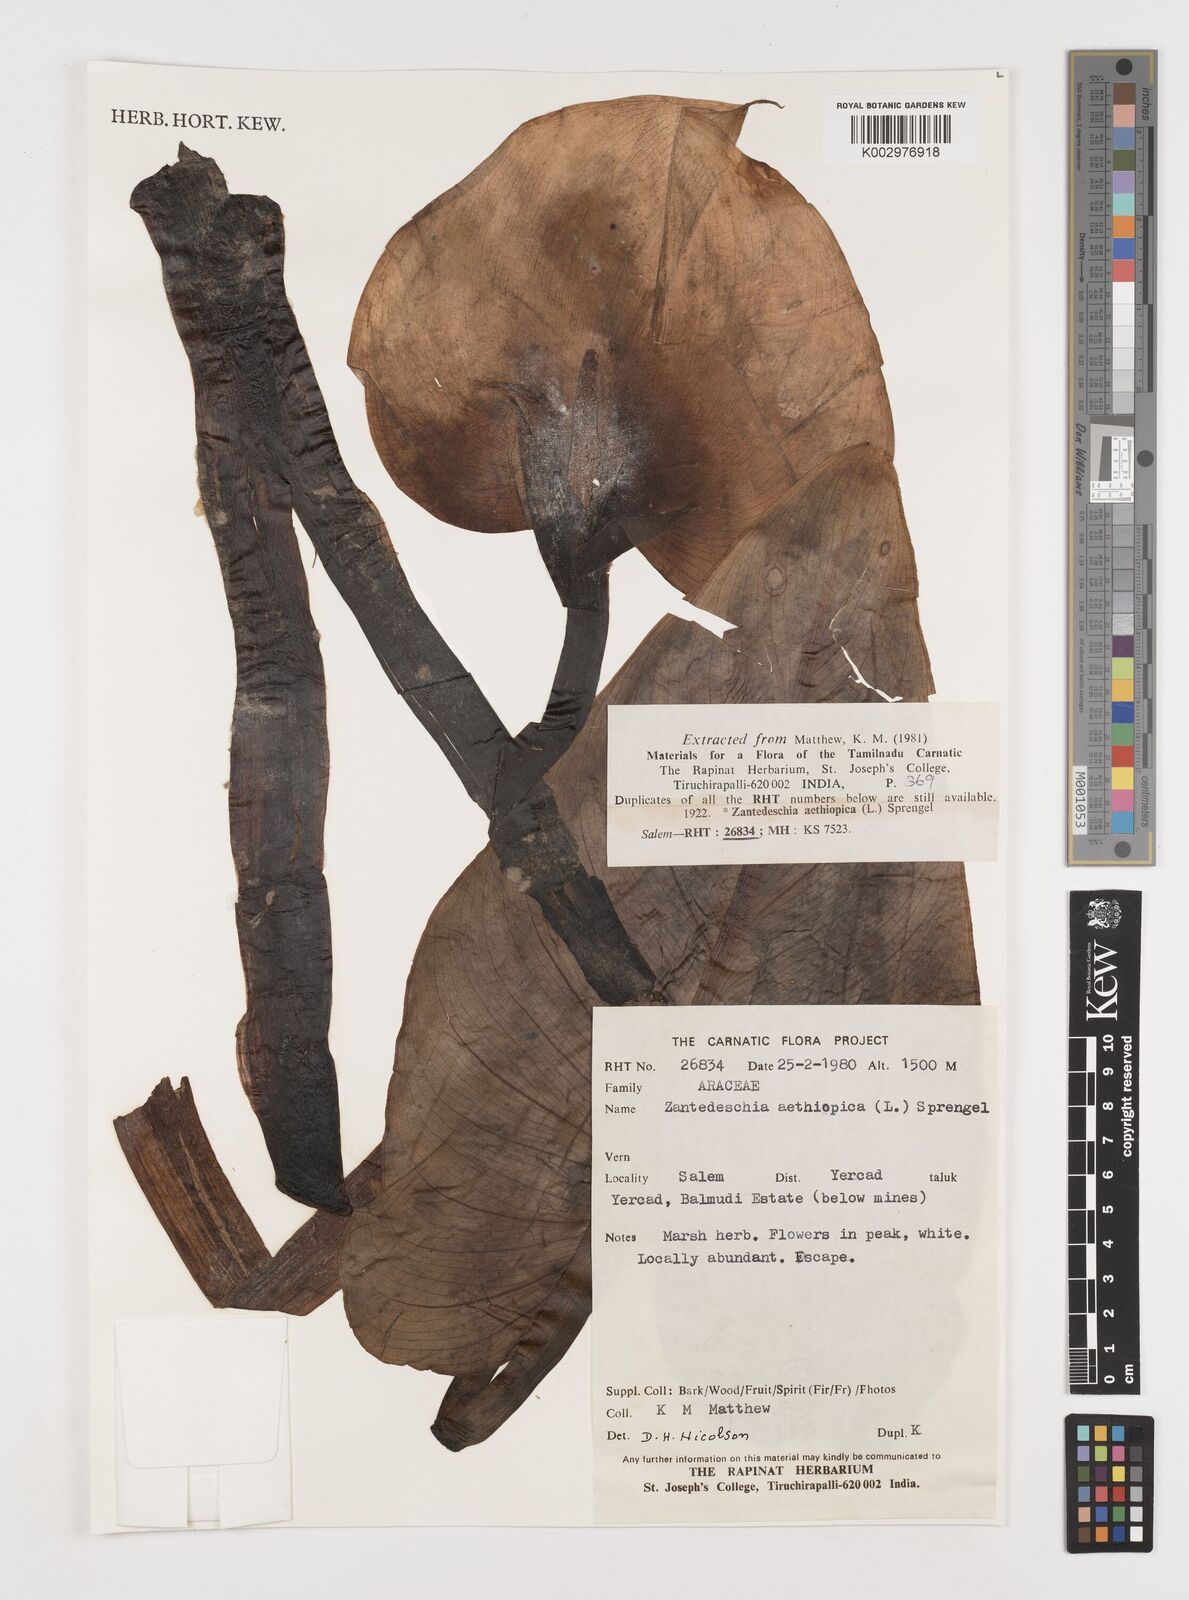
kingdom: Plantae
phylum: Tracheophyta
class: Liliopsida
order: Alismatales
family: Araceae
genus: Zantedeschia
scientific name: Zantedeschia aethiopica
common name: Altar-lily
